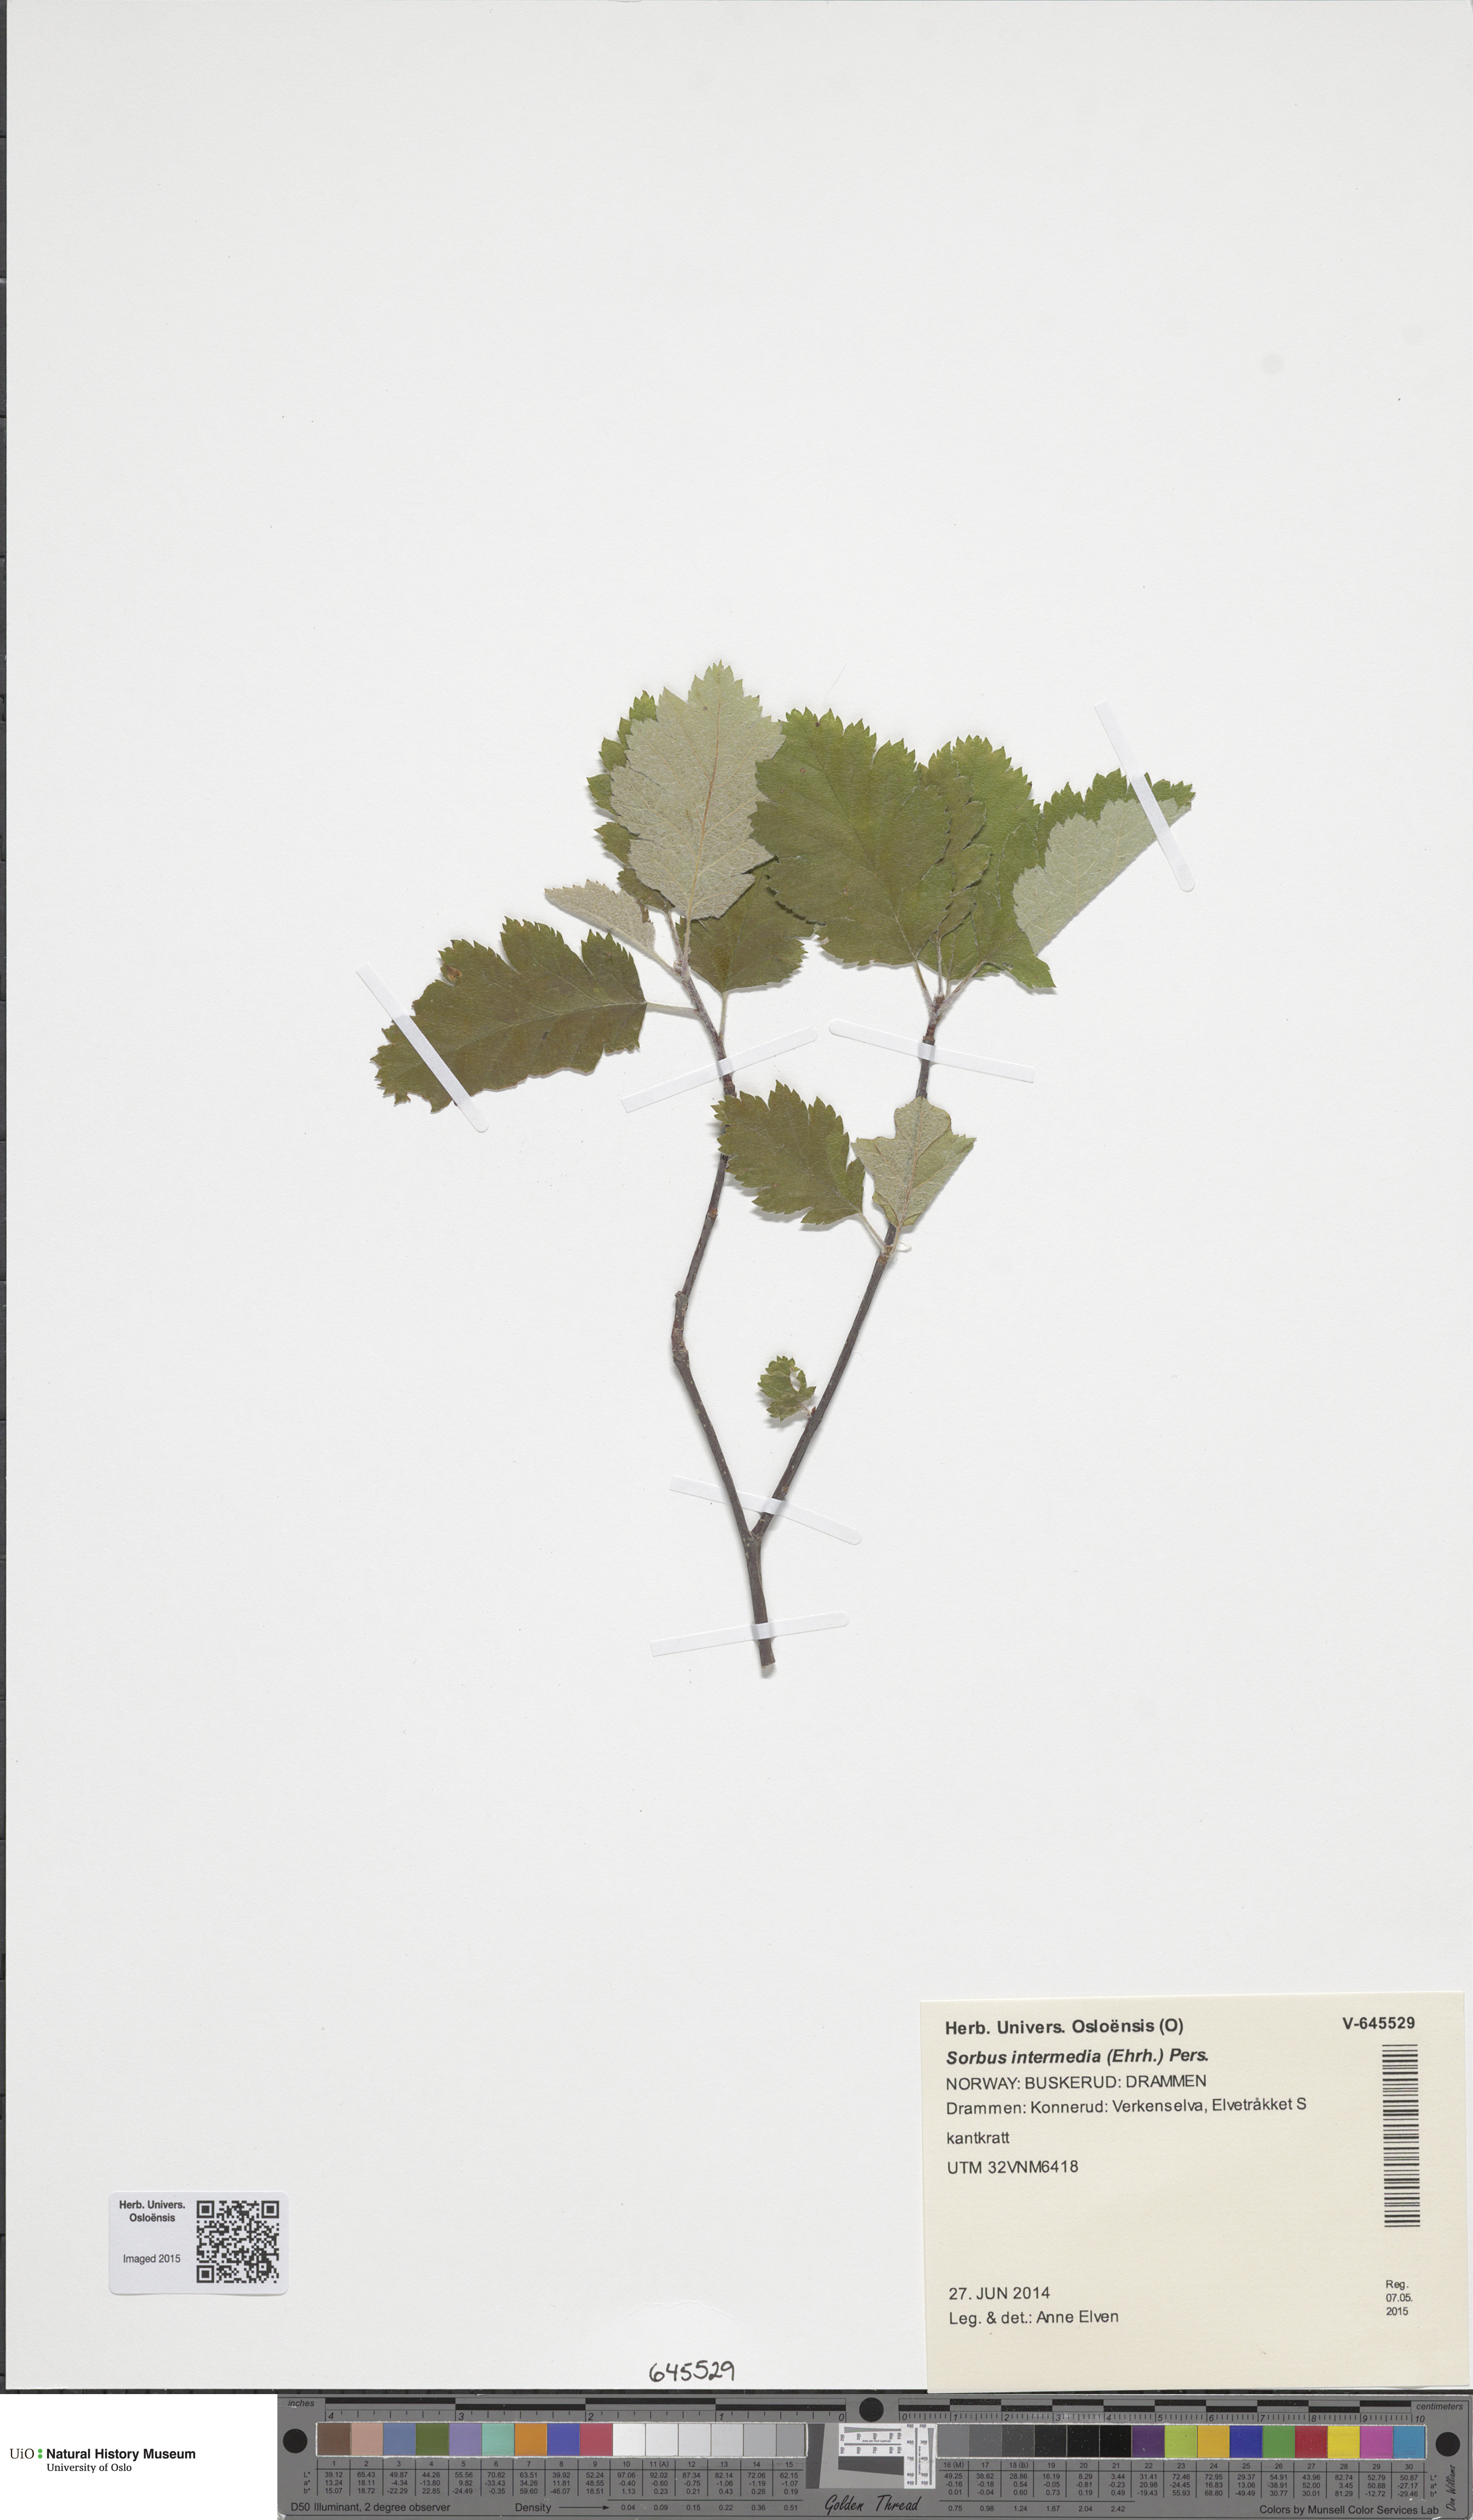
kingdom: Plantae
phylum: Tracheophyta
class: Magnoliopsida
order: Rosales
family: Rosaceae
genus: Scandosorbus
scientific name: Scandosorbus intermedia
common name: Swedish whitebeam
